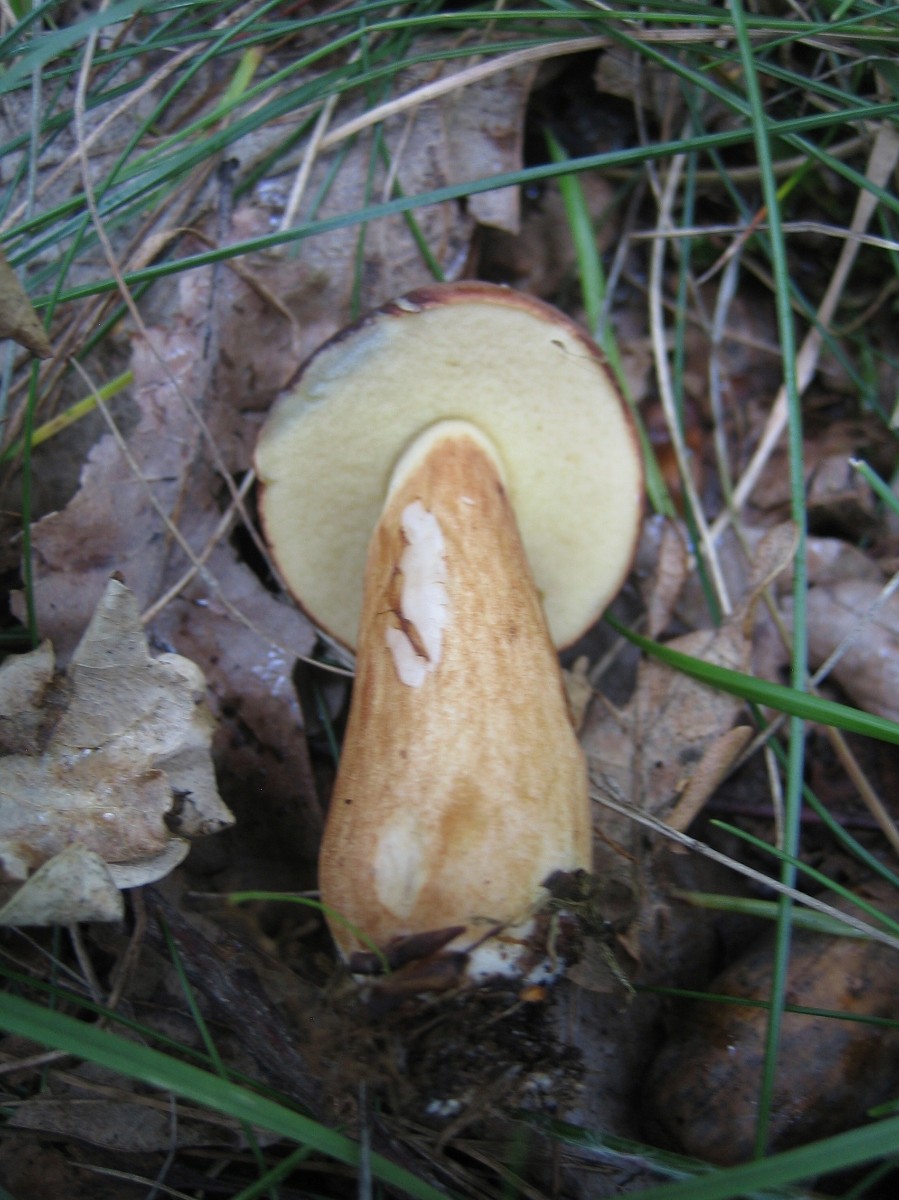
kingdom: Fungi
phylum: Basidiomycota
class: Agaricomycetes
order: Boletales
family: Boletaceae
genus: Imleria
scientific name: Imleria badia
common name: brunstokket rørhat
